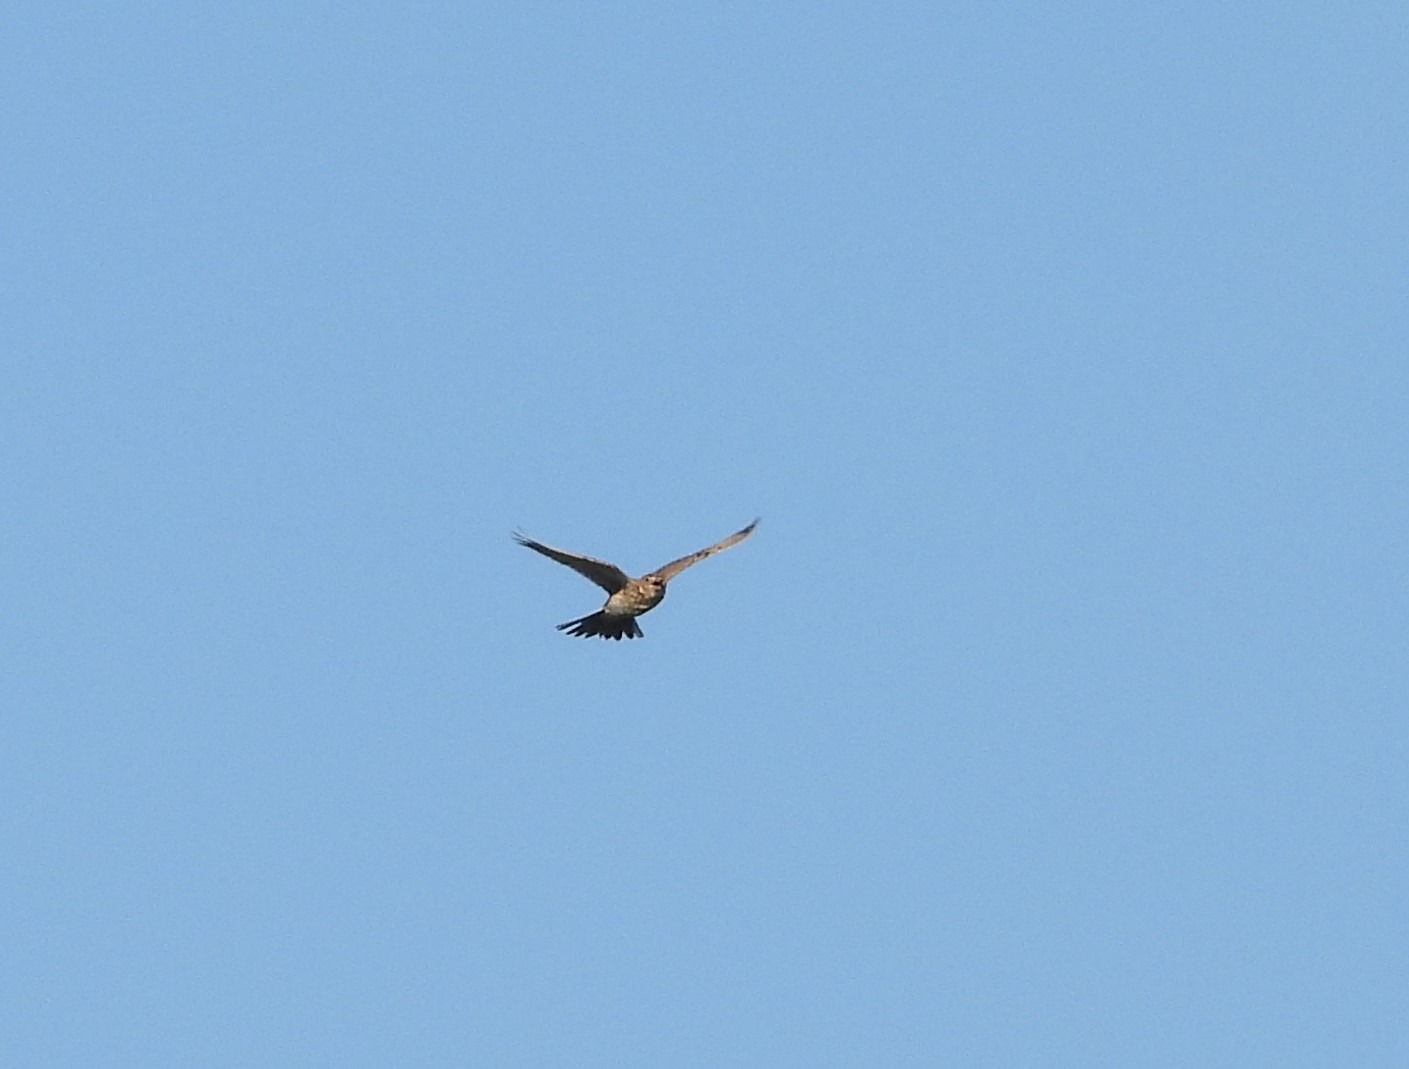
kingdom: Animalia
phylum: Chordata
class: Aves
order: Passeriformes
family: Alaudidae
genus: Alauda
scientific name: Alauda arvensis
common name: Sanglærke
